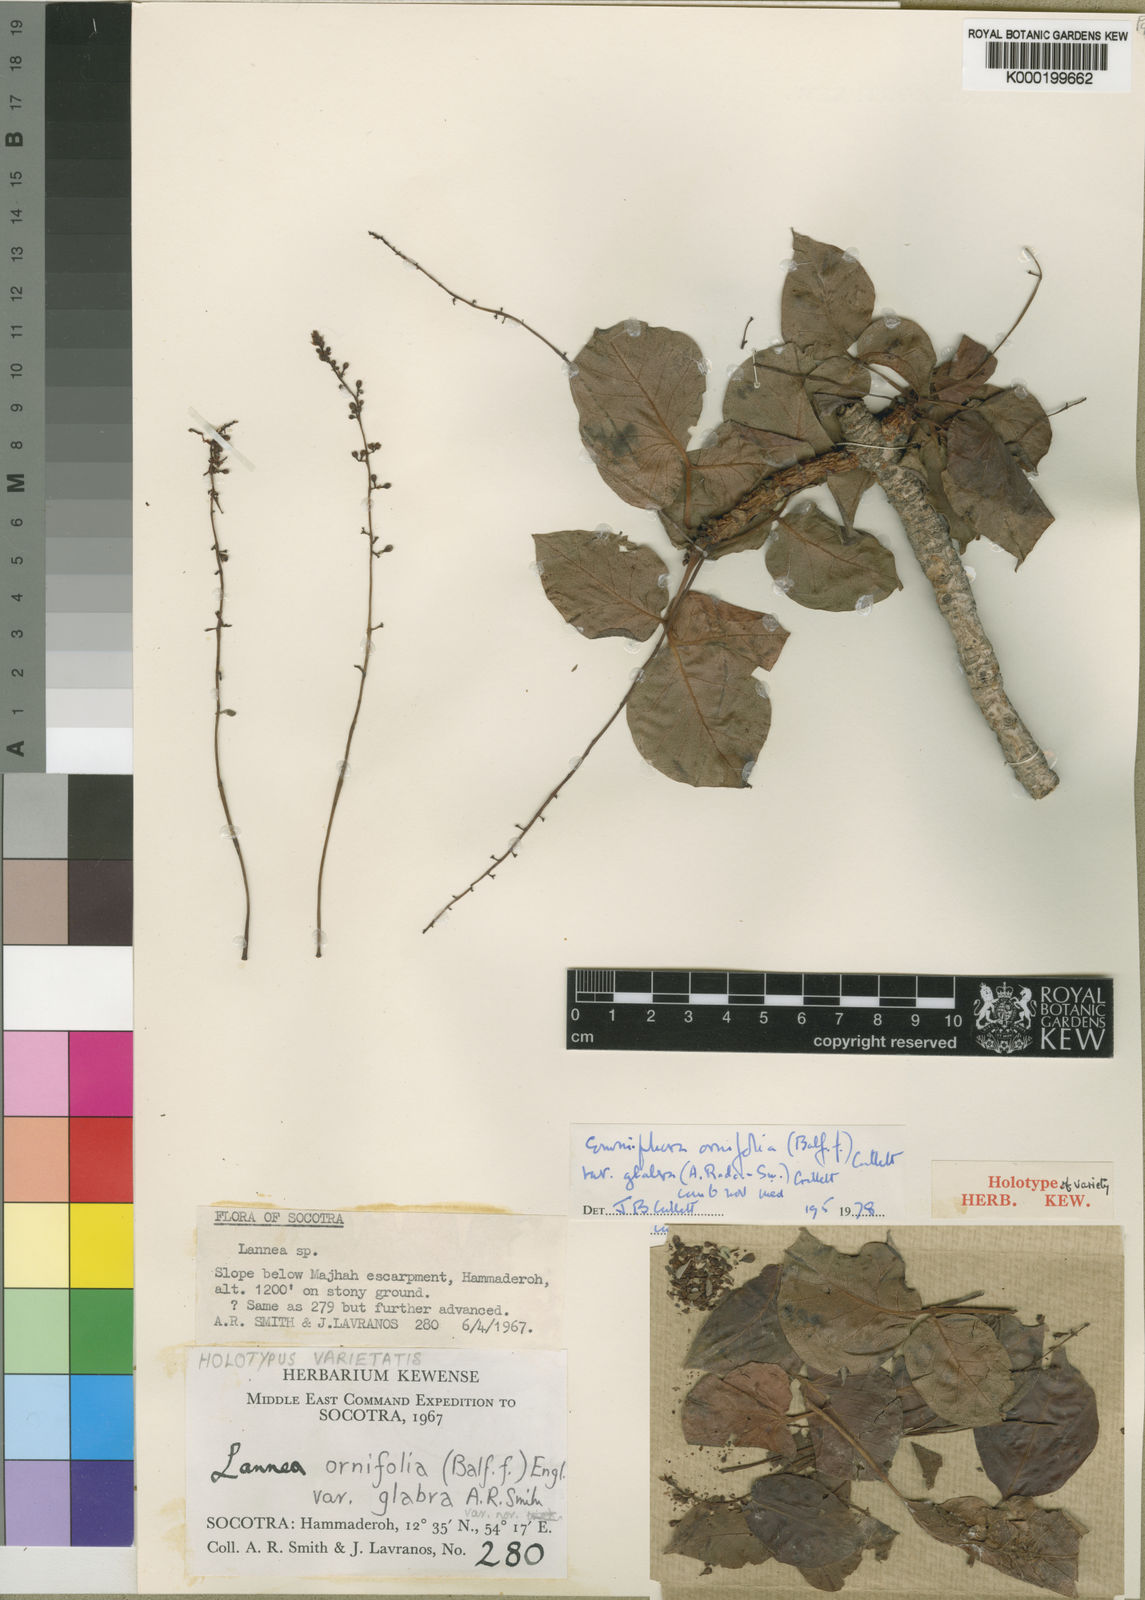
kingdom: Plantae
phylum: Tracheophyta
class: Magnoliopsida
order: Sapindales
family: Burseraceae
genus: Commiphora
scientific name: Commiphora ornifolia
